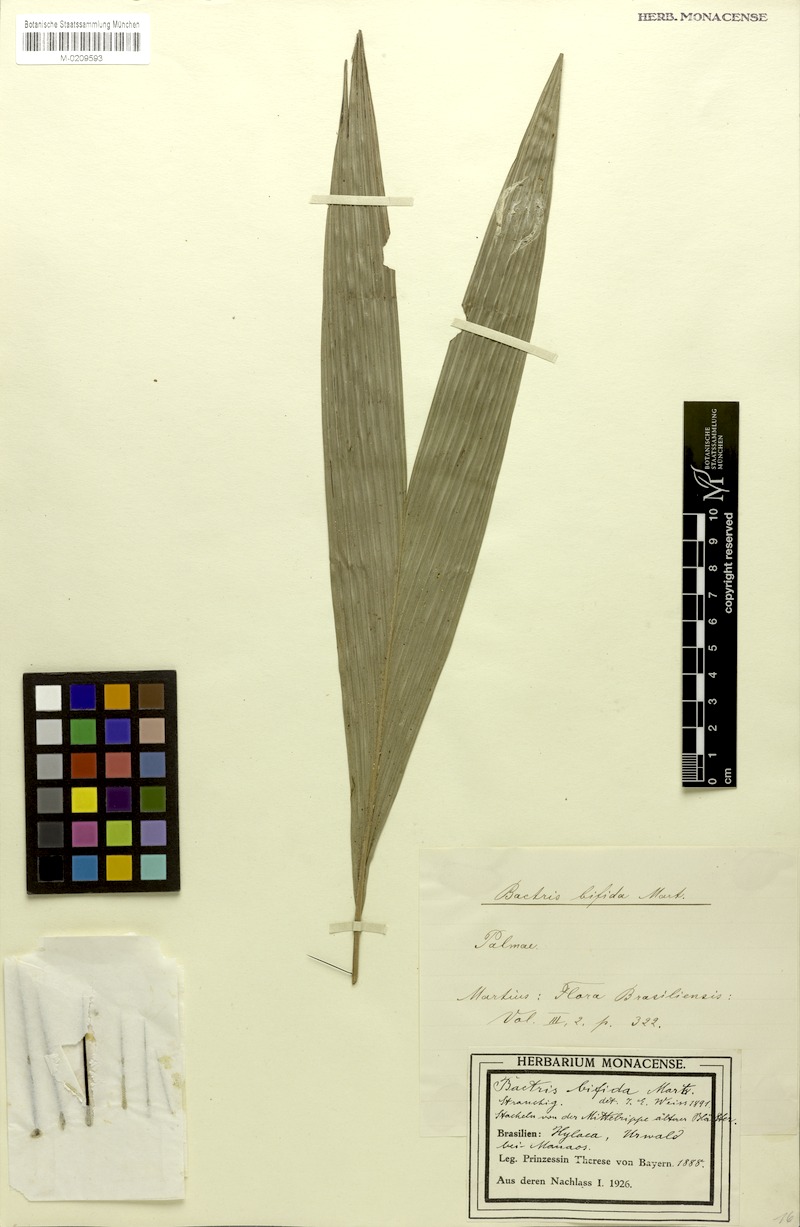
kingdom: Plantae
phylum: Tracheophyta
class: Liliopsida
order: Arecales
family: Arecaceae
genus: Bactris
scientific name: Bactris bifida
